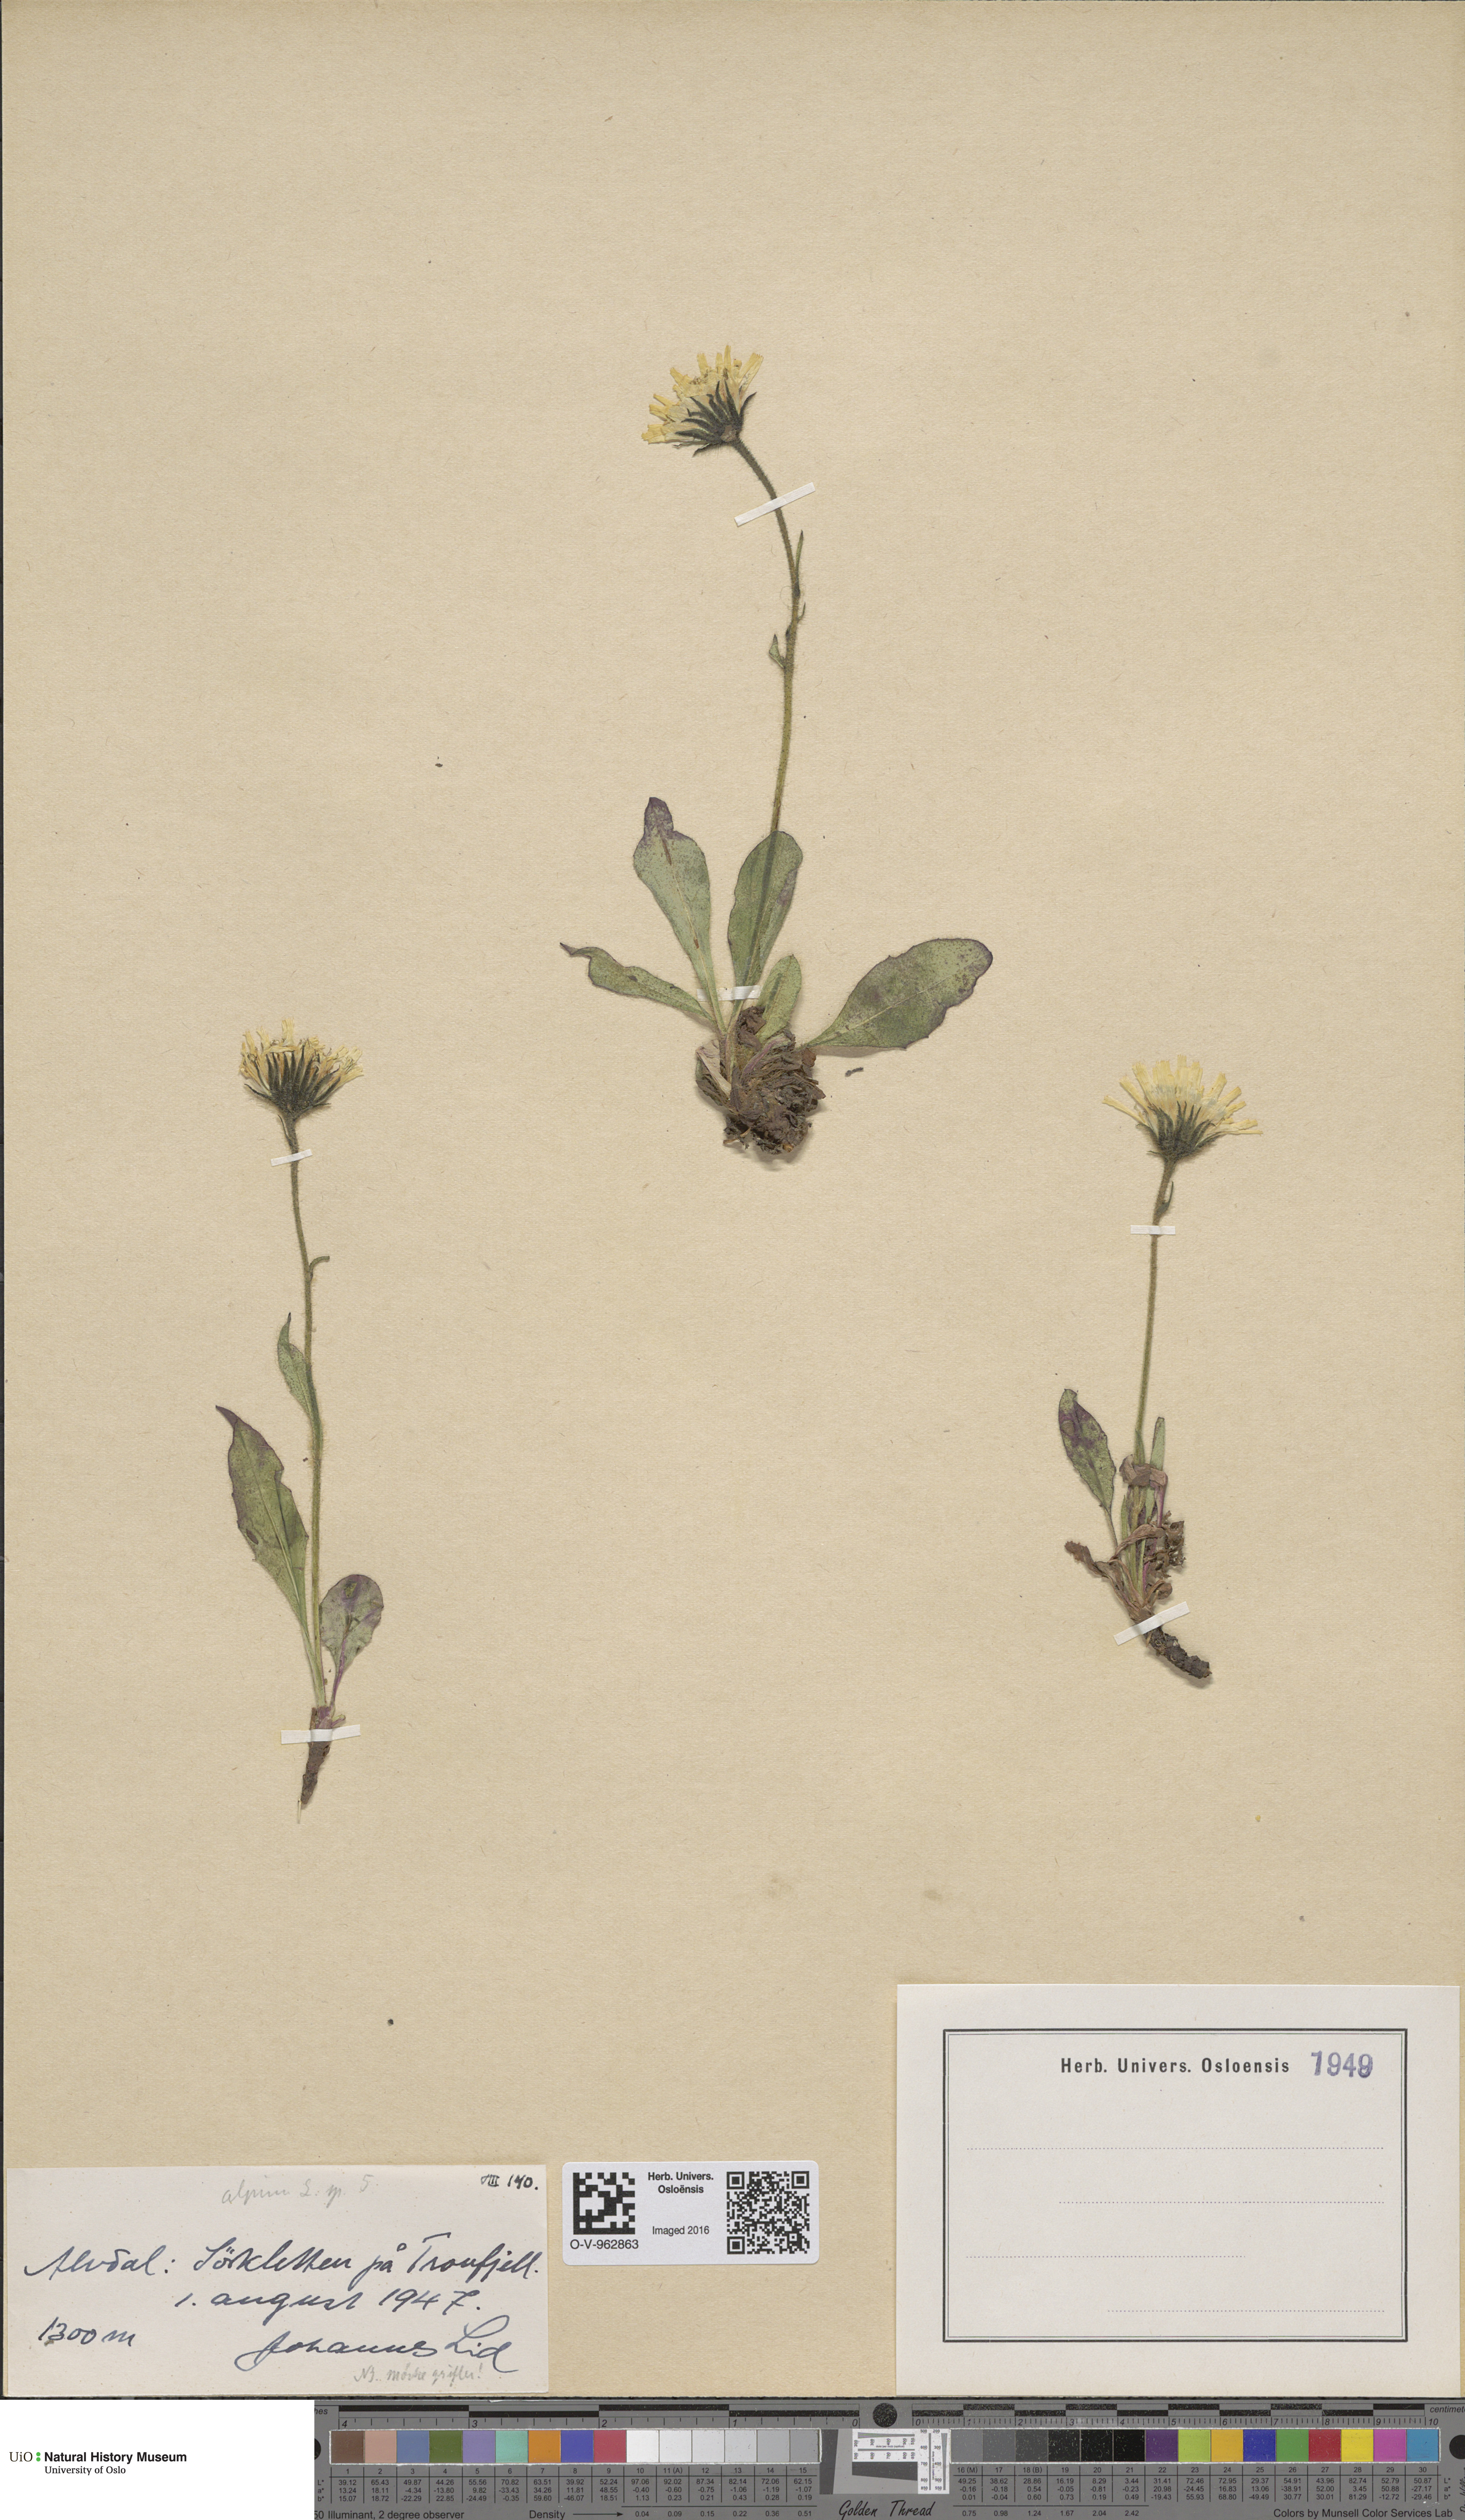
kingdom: Plantae
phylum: Tracheophyta
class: Magnoliopsida
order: Asterales
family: Asteraceae
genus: Hieracium
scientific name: Hieracium
